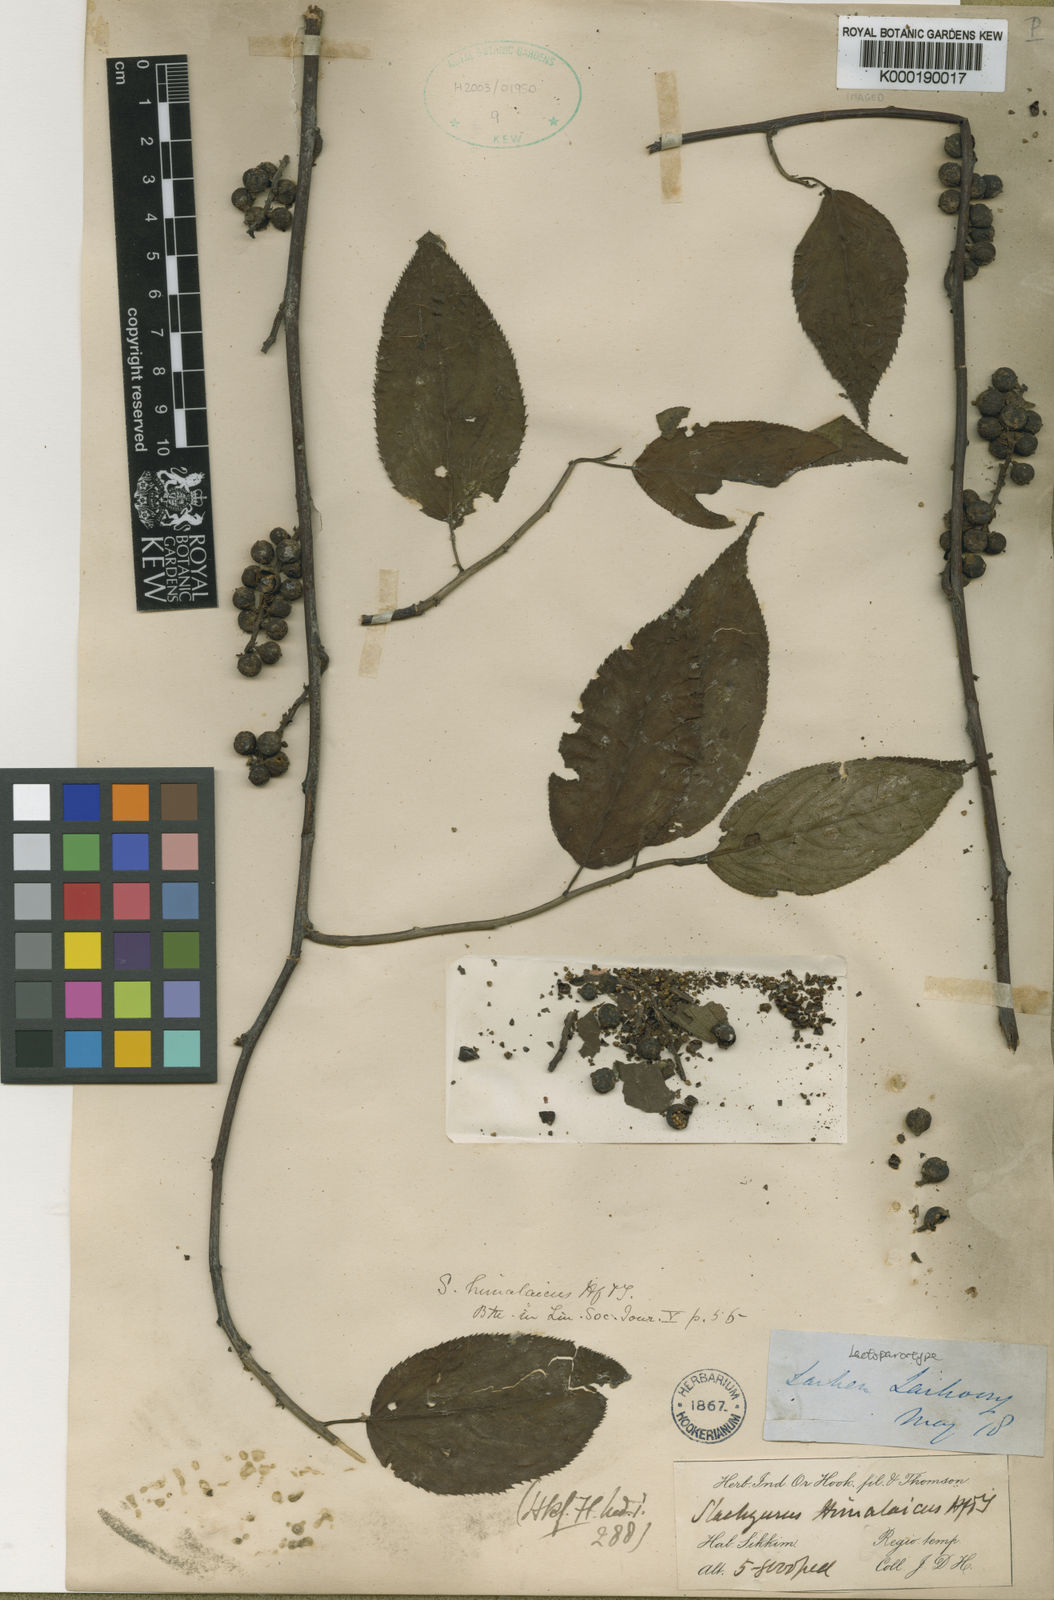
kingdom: Plantae
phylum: Tracheophyta
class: Magnoliopsida
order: Crossosomatales
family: Stachyuraceae
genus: Stachyurus
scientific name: Stachyurus himalaicus
